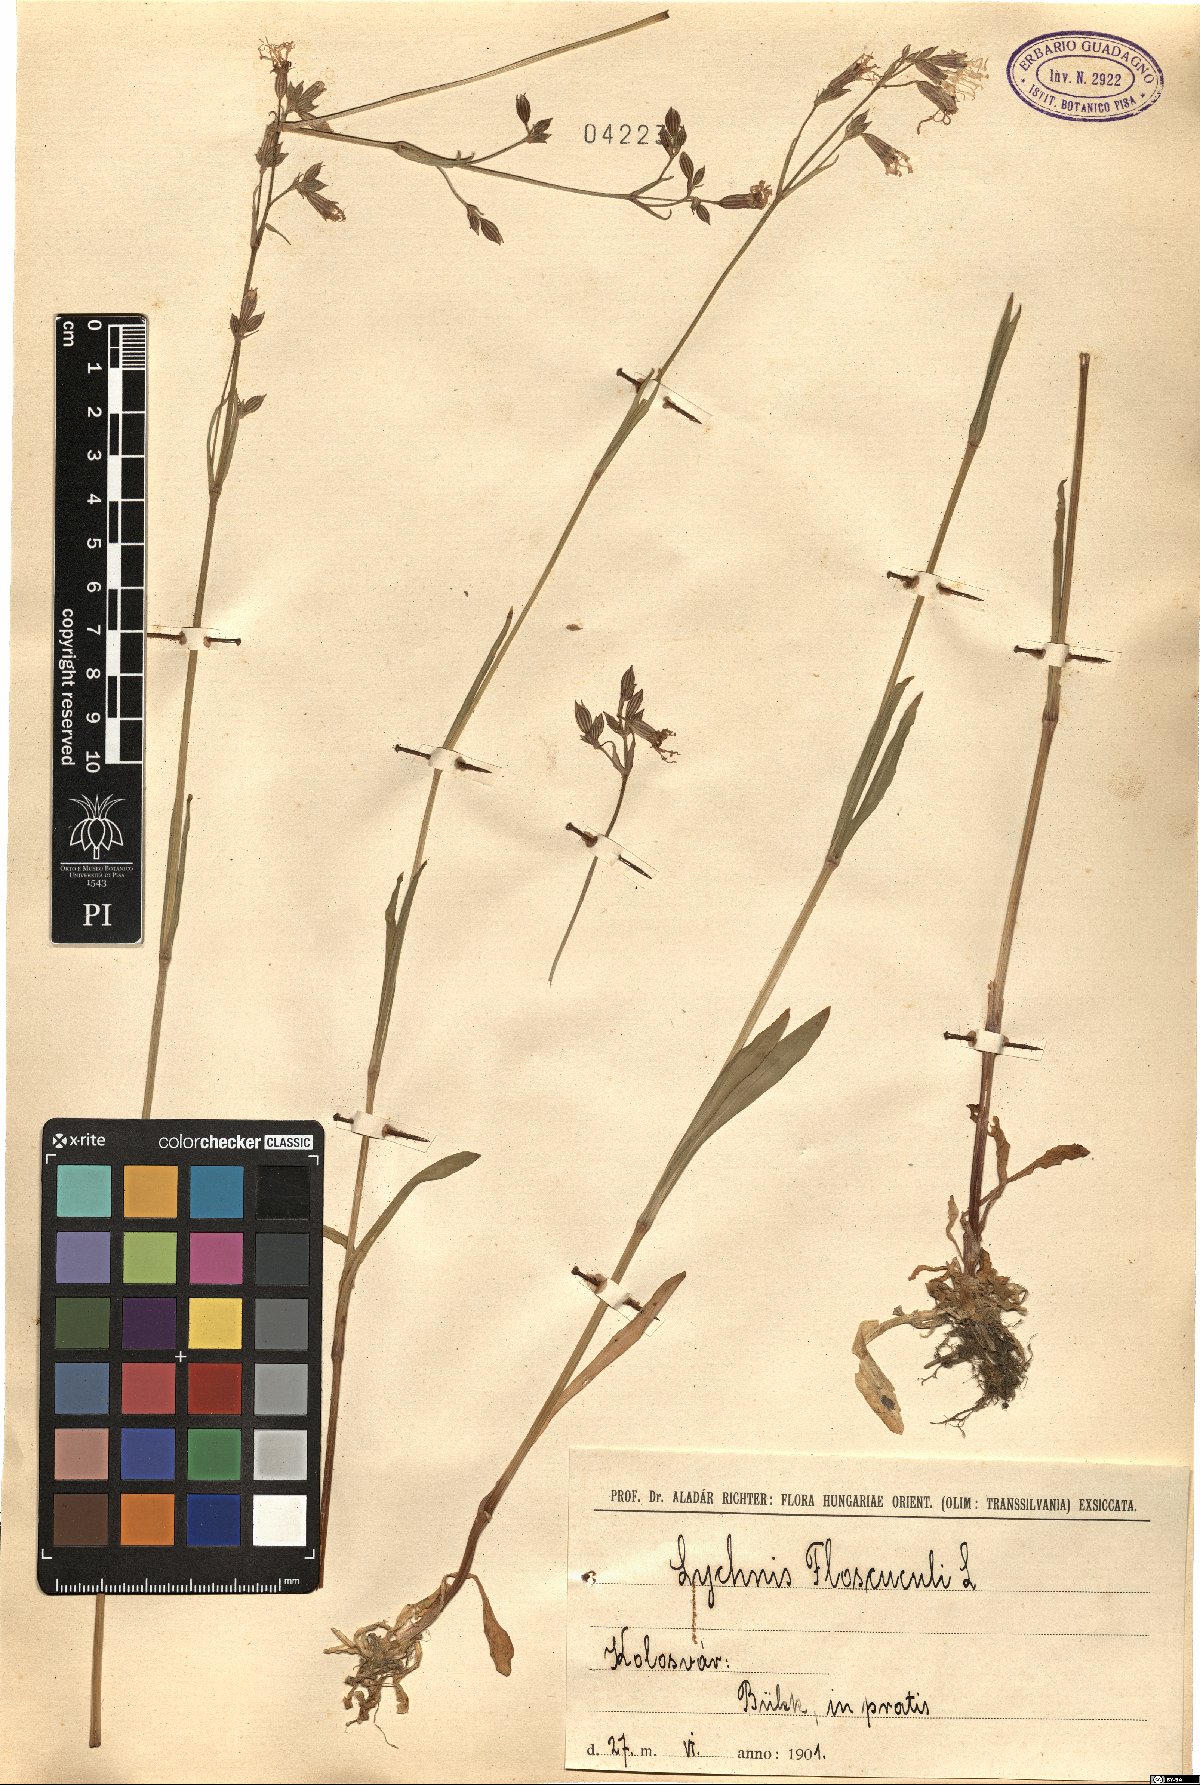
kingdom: Plantae
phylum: Tracheophyta
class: Magnoliopsida
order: Caryophyllales
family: Caryophyllaceae
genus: Silene
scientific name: Silene flos-cuculi
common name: Ragged-robin
